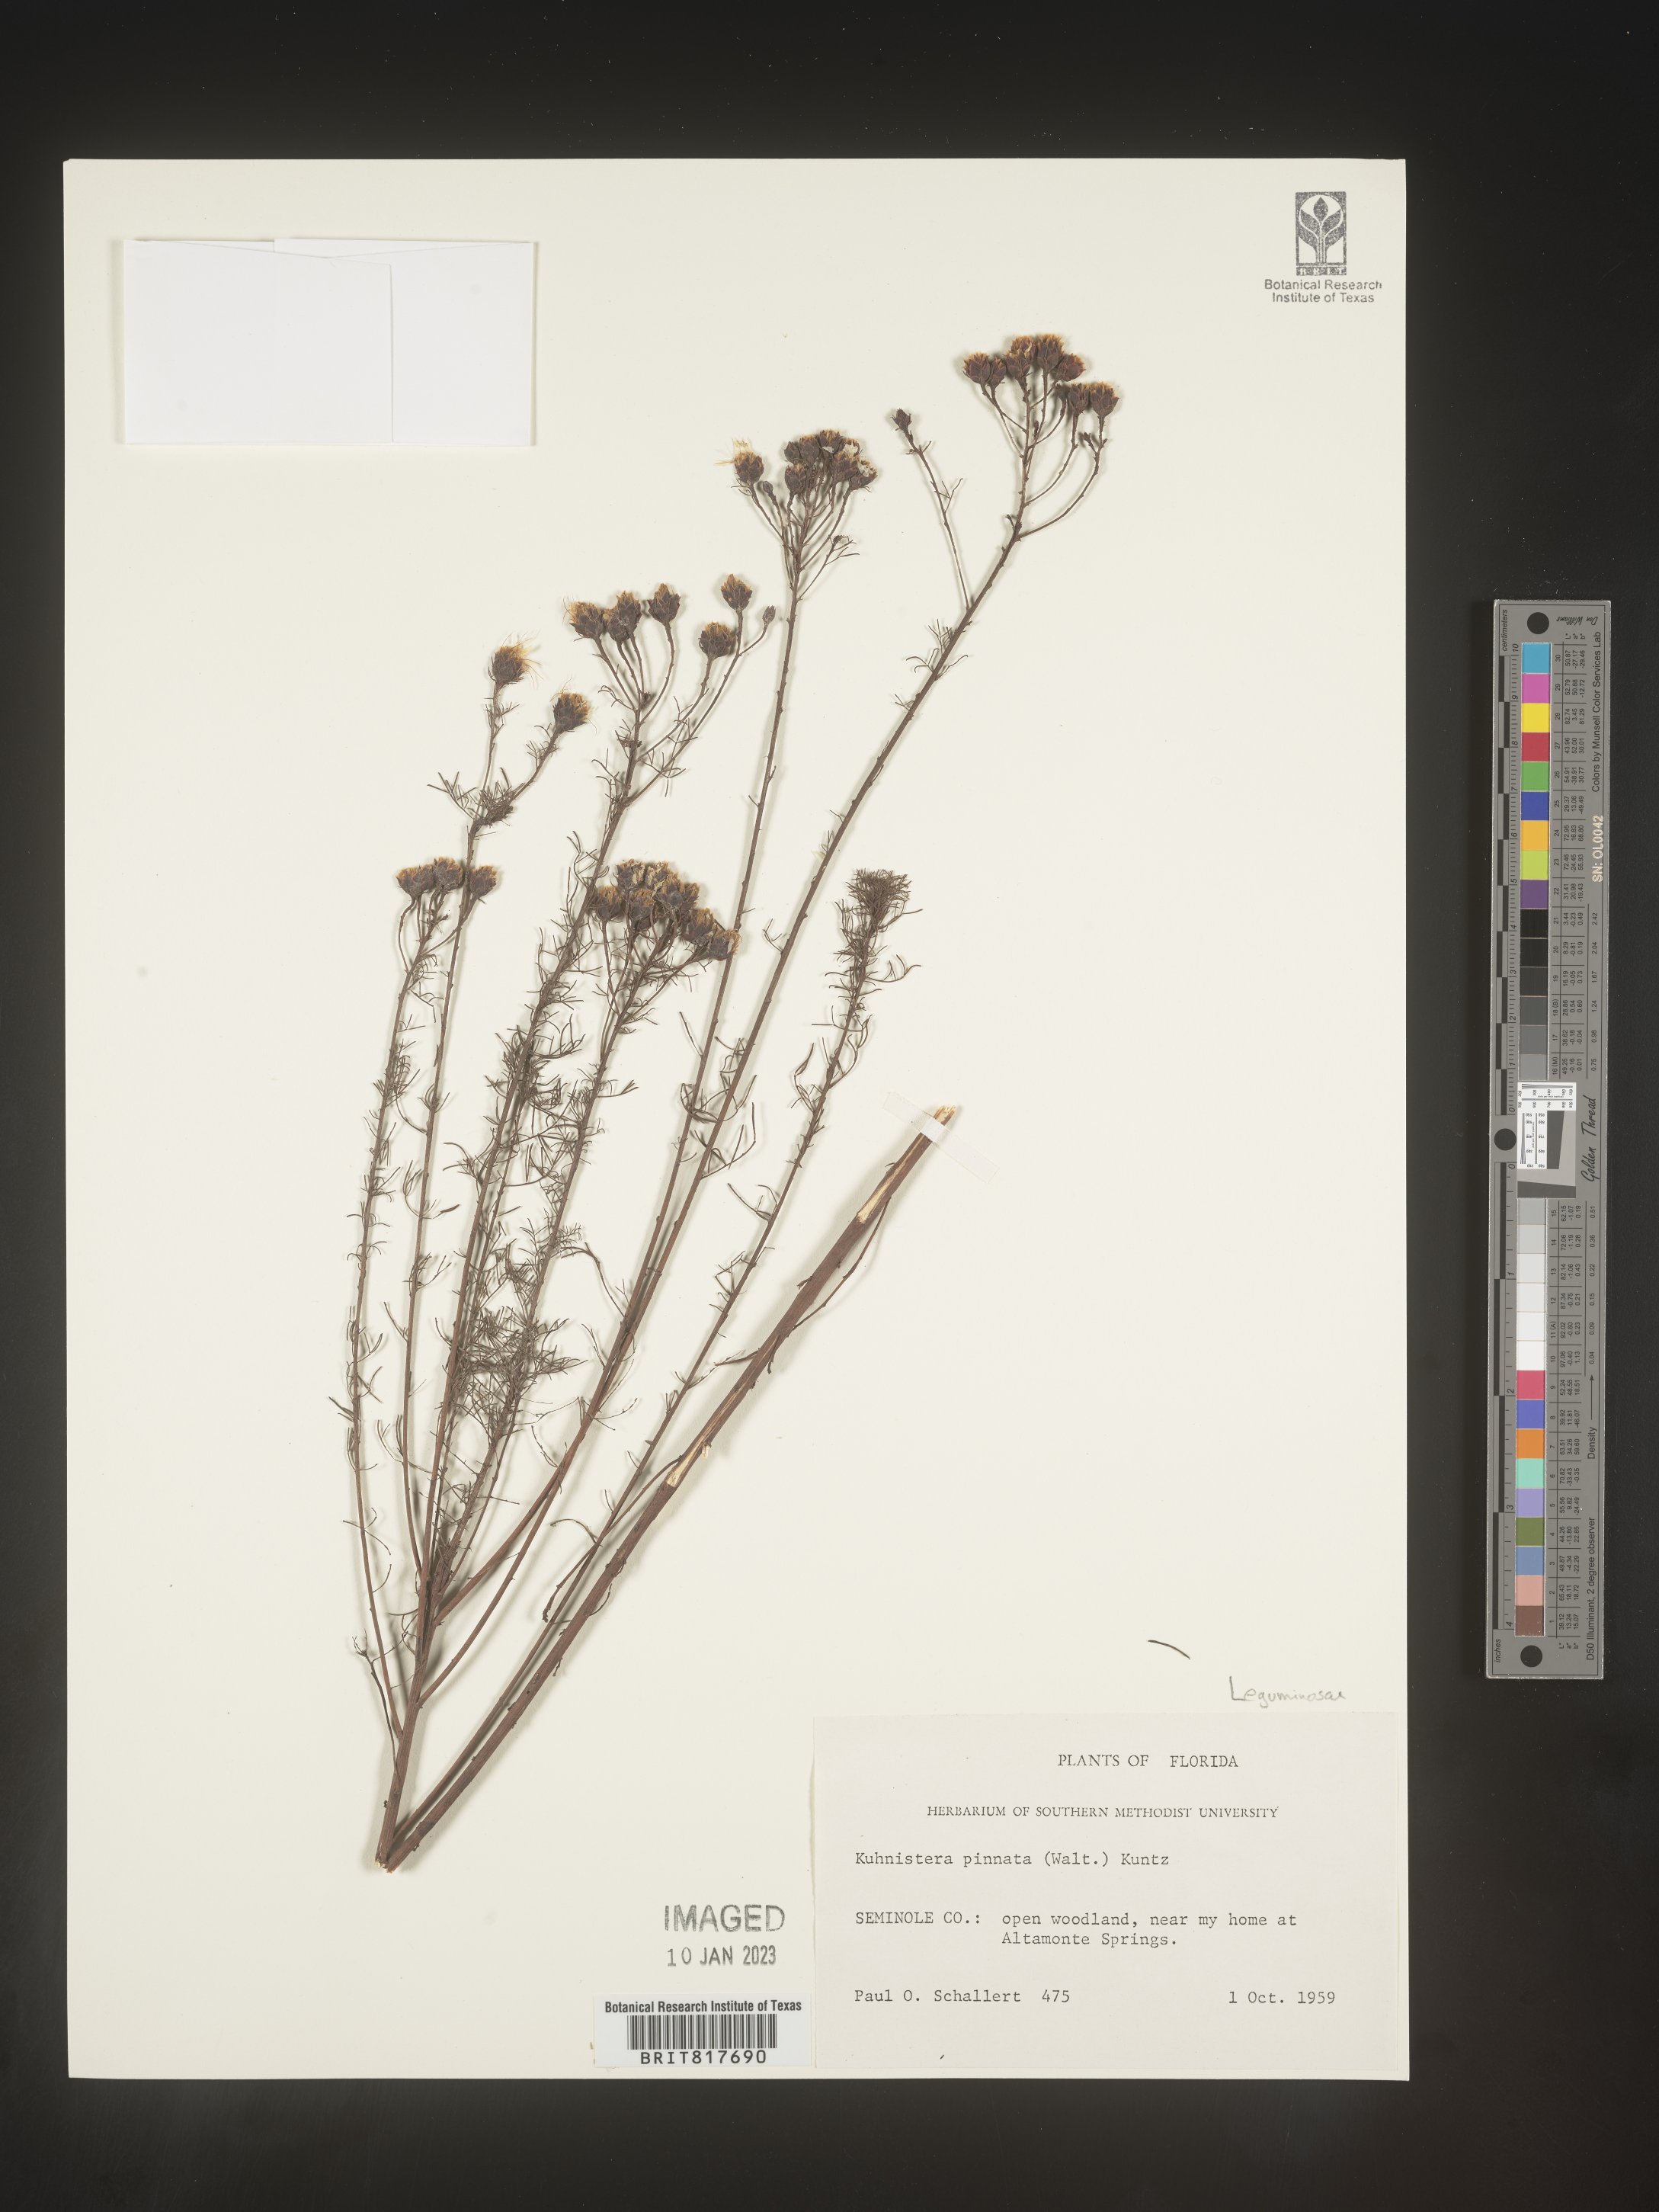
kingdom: Plantae
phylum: Tracheophyta
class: Magnoliopsida
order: Fabales
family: Fabaceae
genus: Dalea
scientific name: Dalea pinnata
